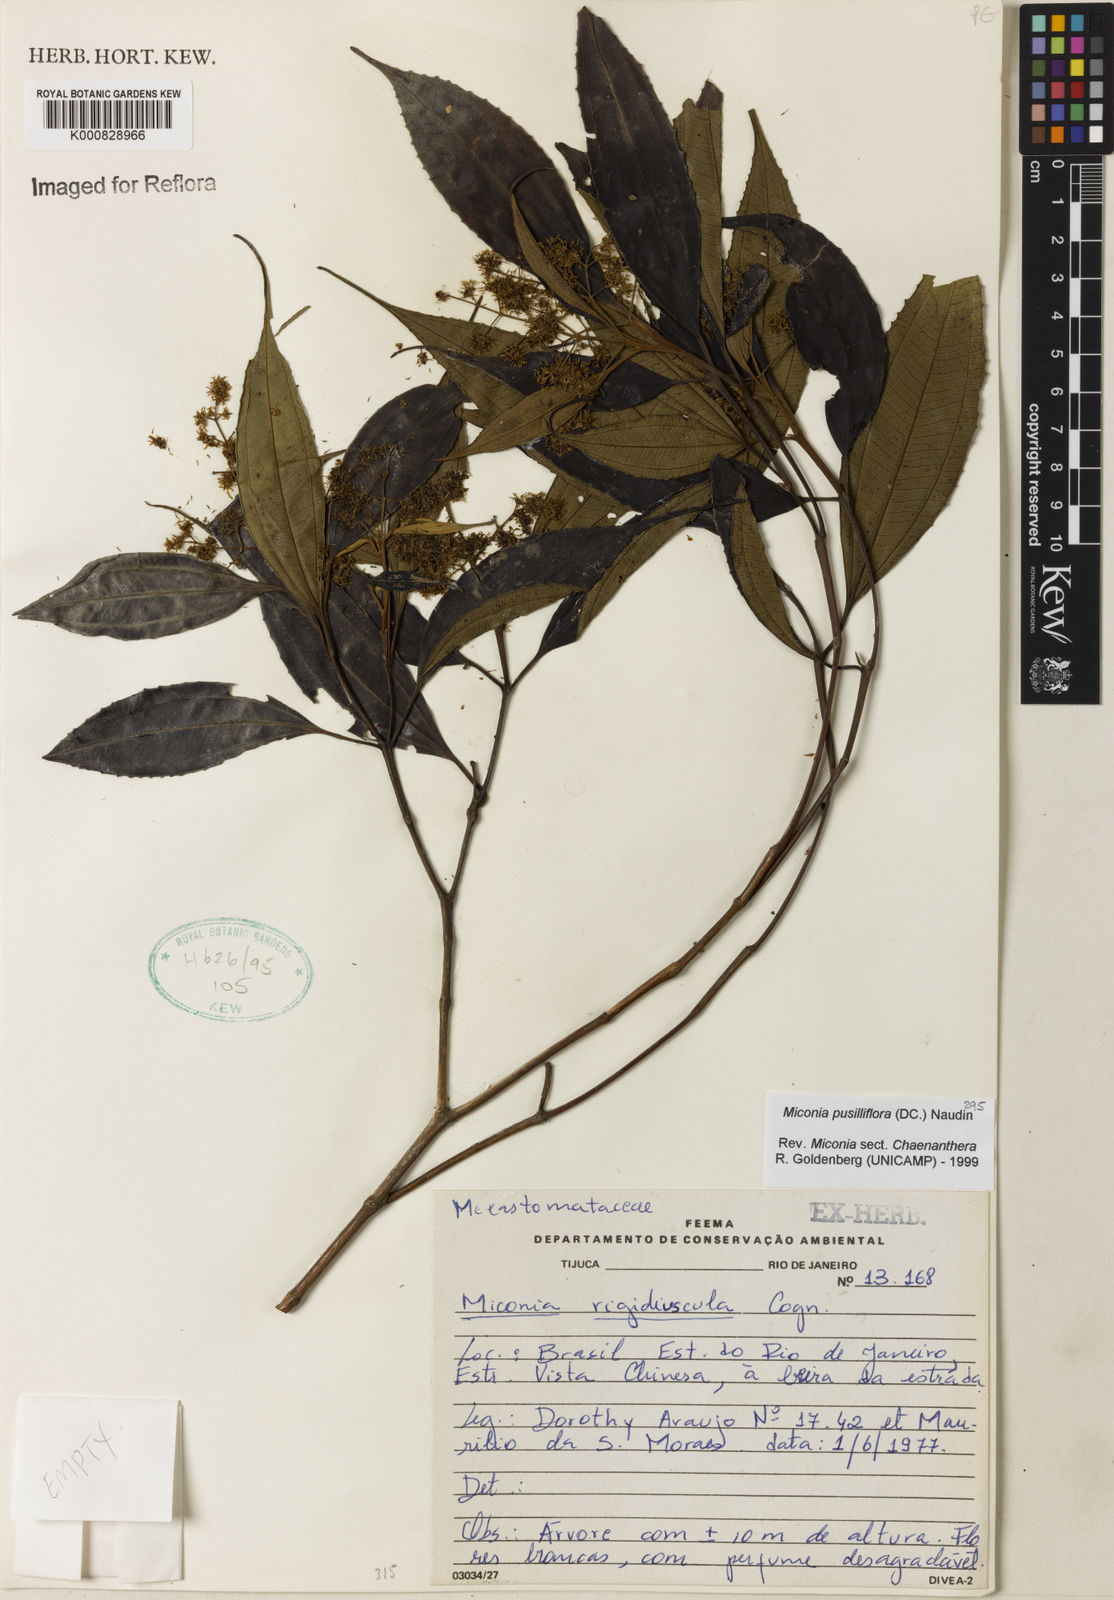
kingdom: Plantae
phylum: Tracheophyta
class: Magnoliopsida
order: Myrtales
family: Melastomataceae
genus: Miconia
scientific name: Miconia pusilliflora
